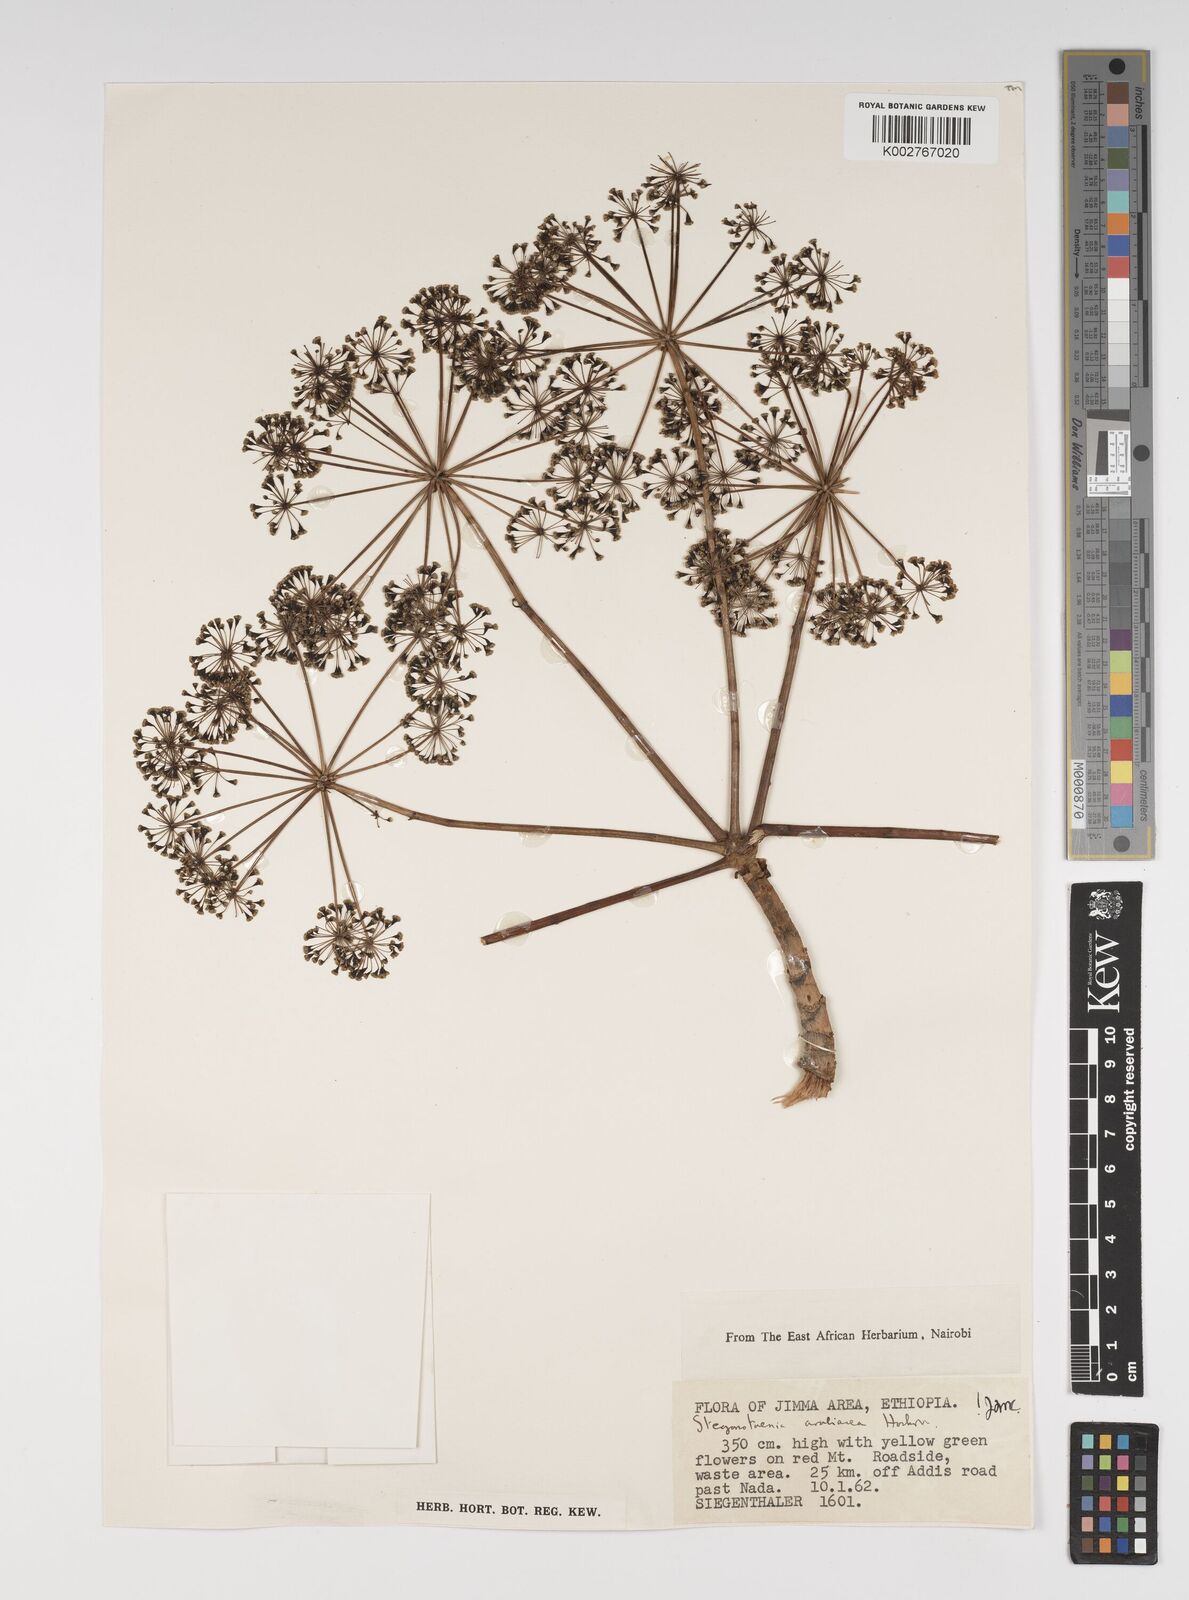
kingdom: Plantae
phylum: Tracheophyta
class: Magnoliopsida
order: Apiales
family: Apiaceae
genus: Steganotaenia
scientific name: Steganotaenia araliacea
